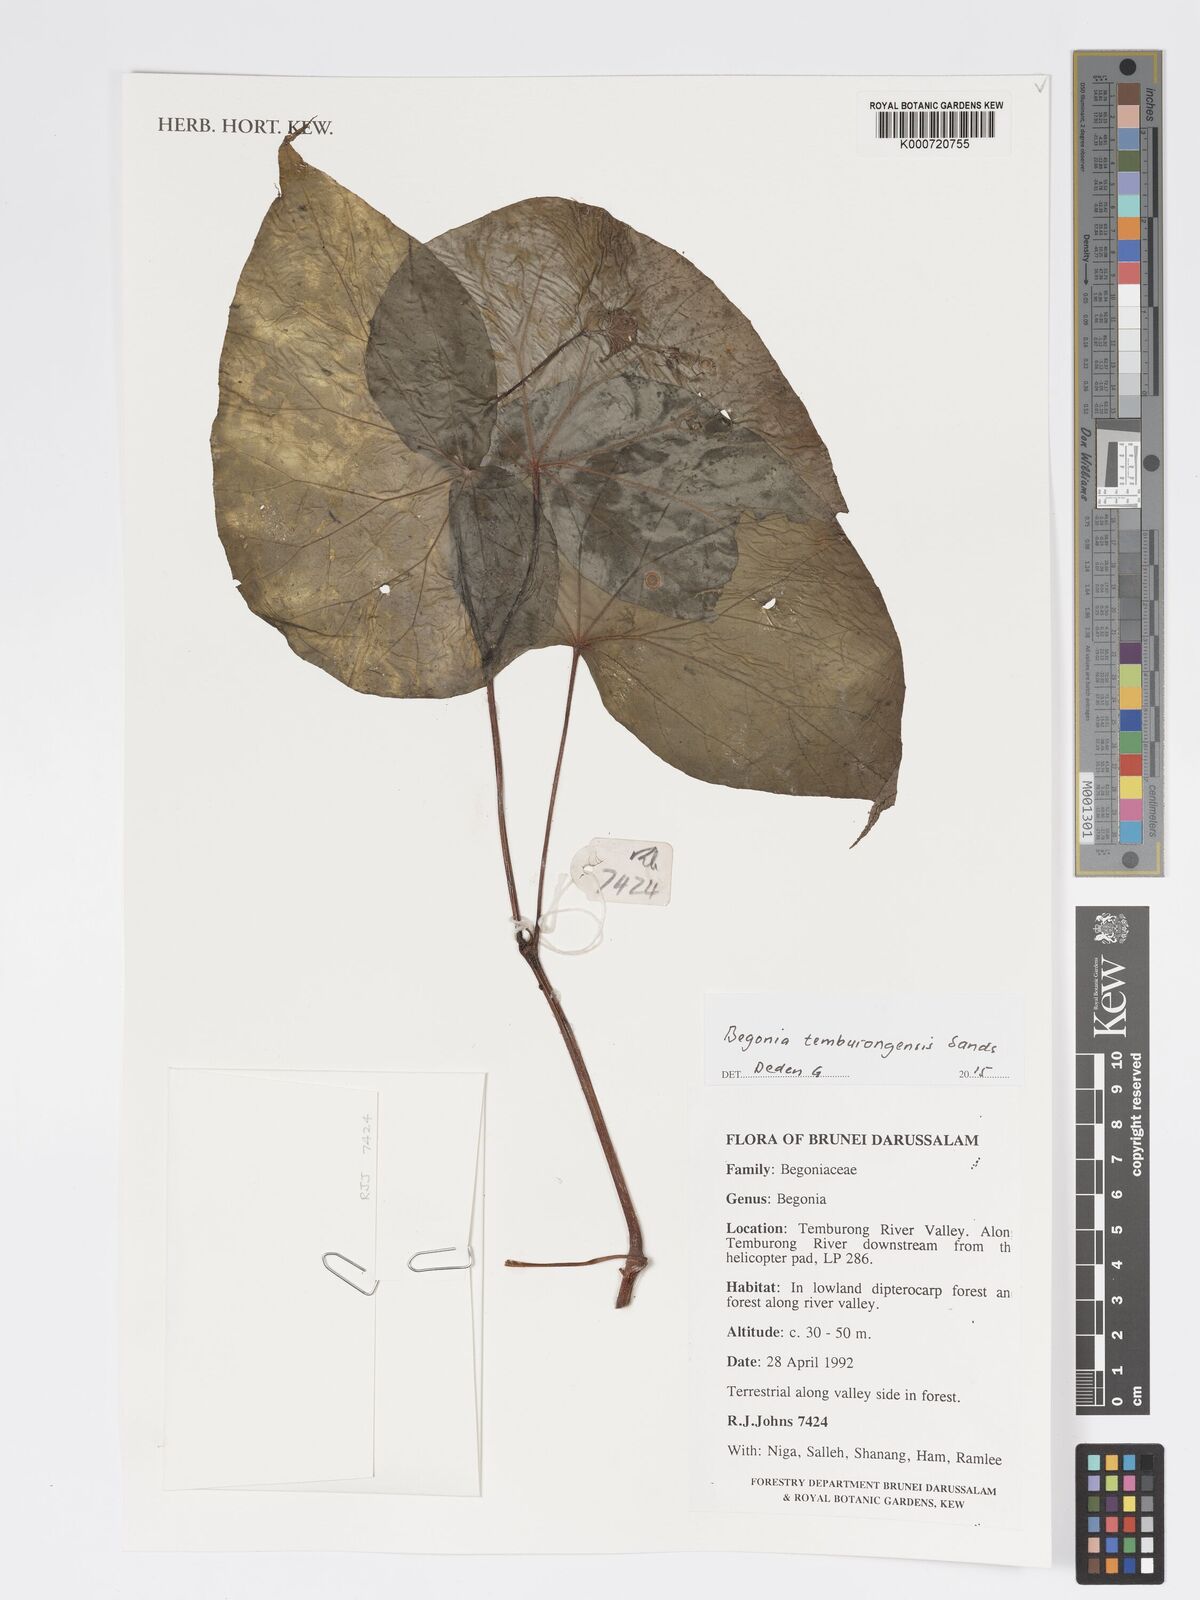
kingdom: Plantae
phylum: Tracheophyta
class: Magnoliopsida
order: Cucurbitales
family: Begoniaceae
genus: Begonia
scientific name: Begonia temburongensis
